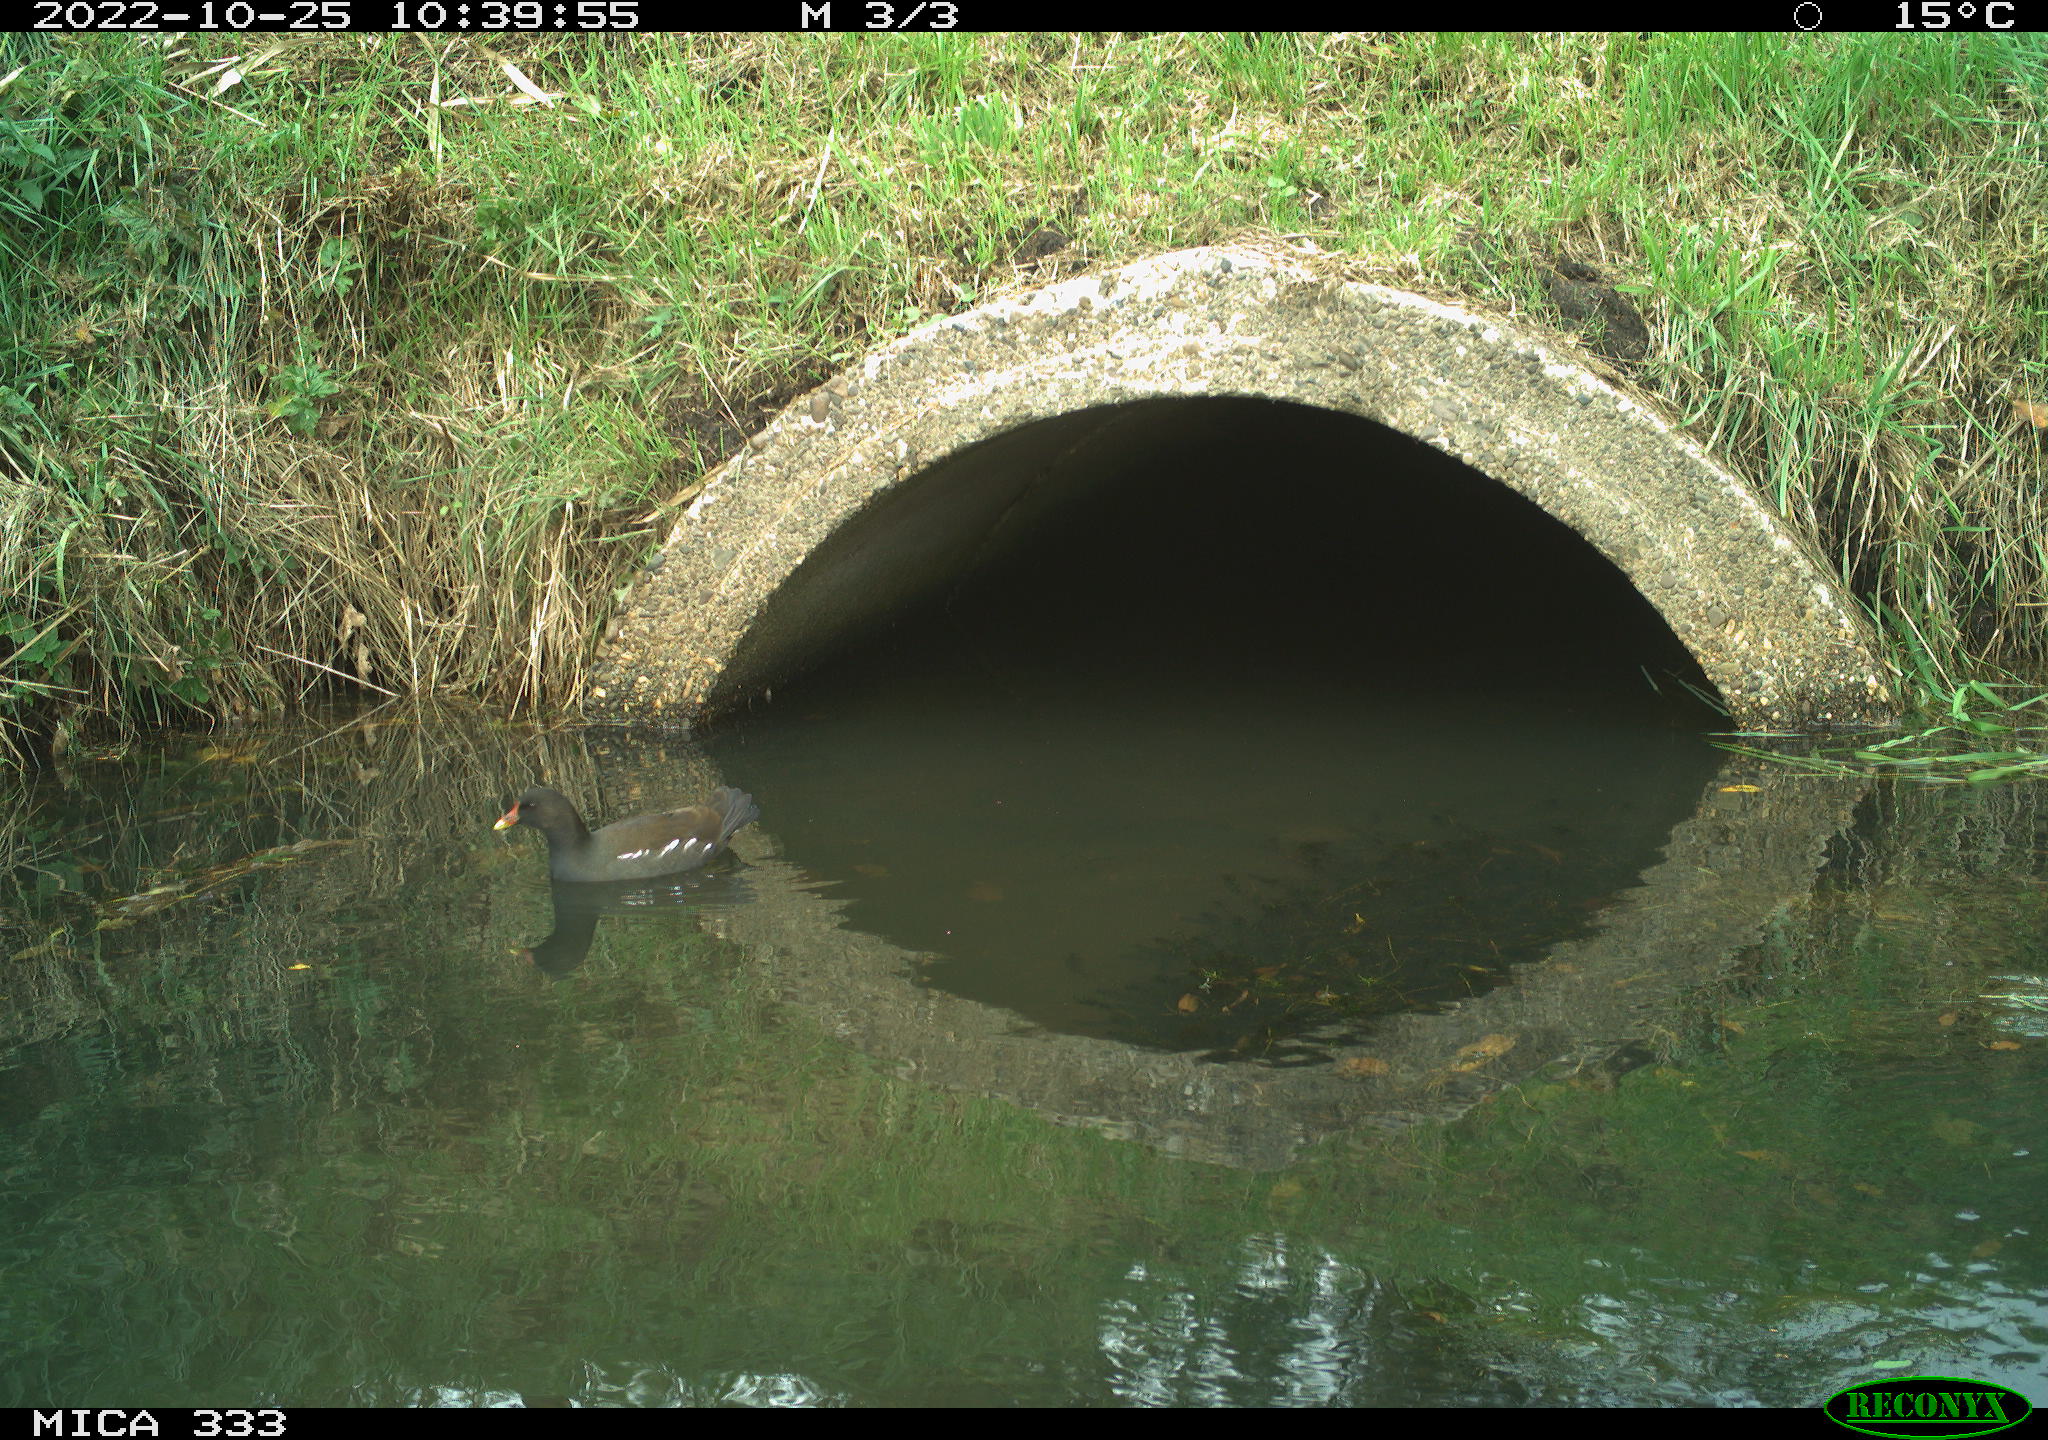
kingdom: Animalia
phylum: Chordata
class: Aves
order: Gruiformes
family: Rallidae
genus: Gallinula
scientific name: Gallinula chloropus
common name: Common moorhen
